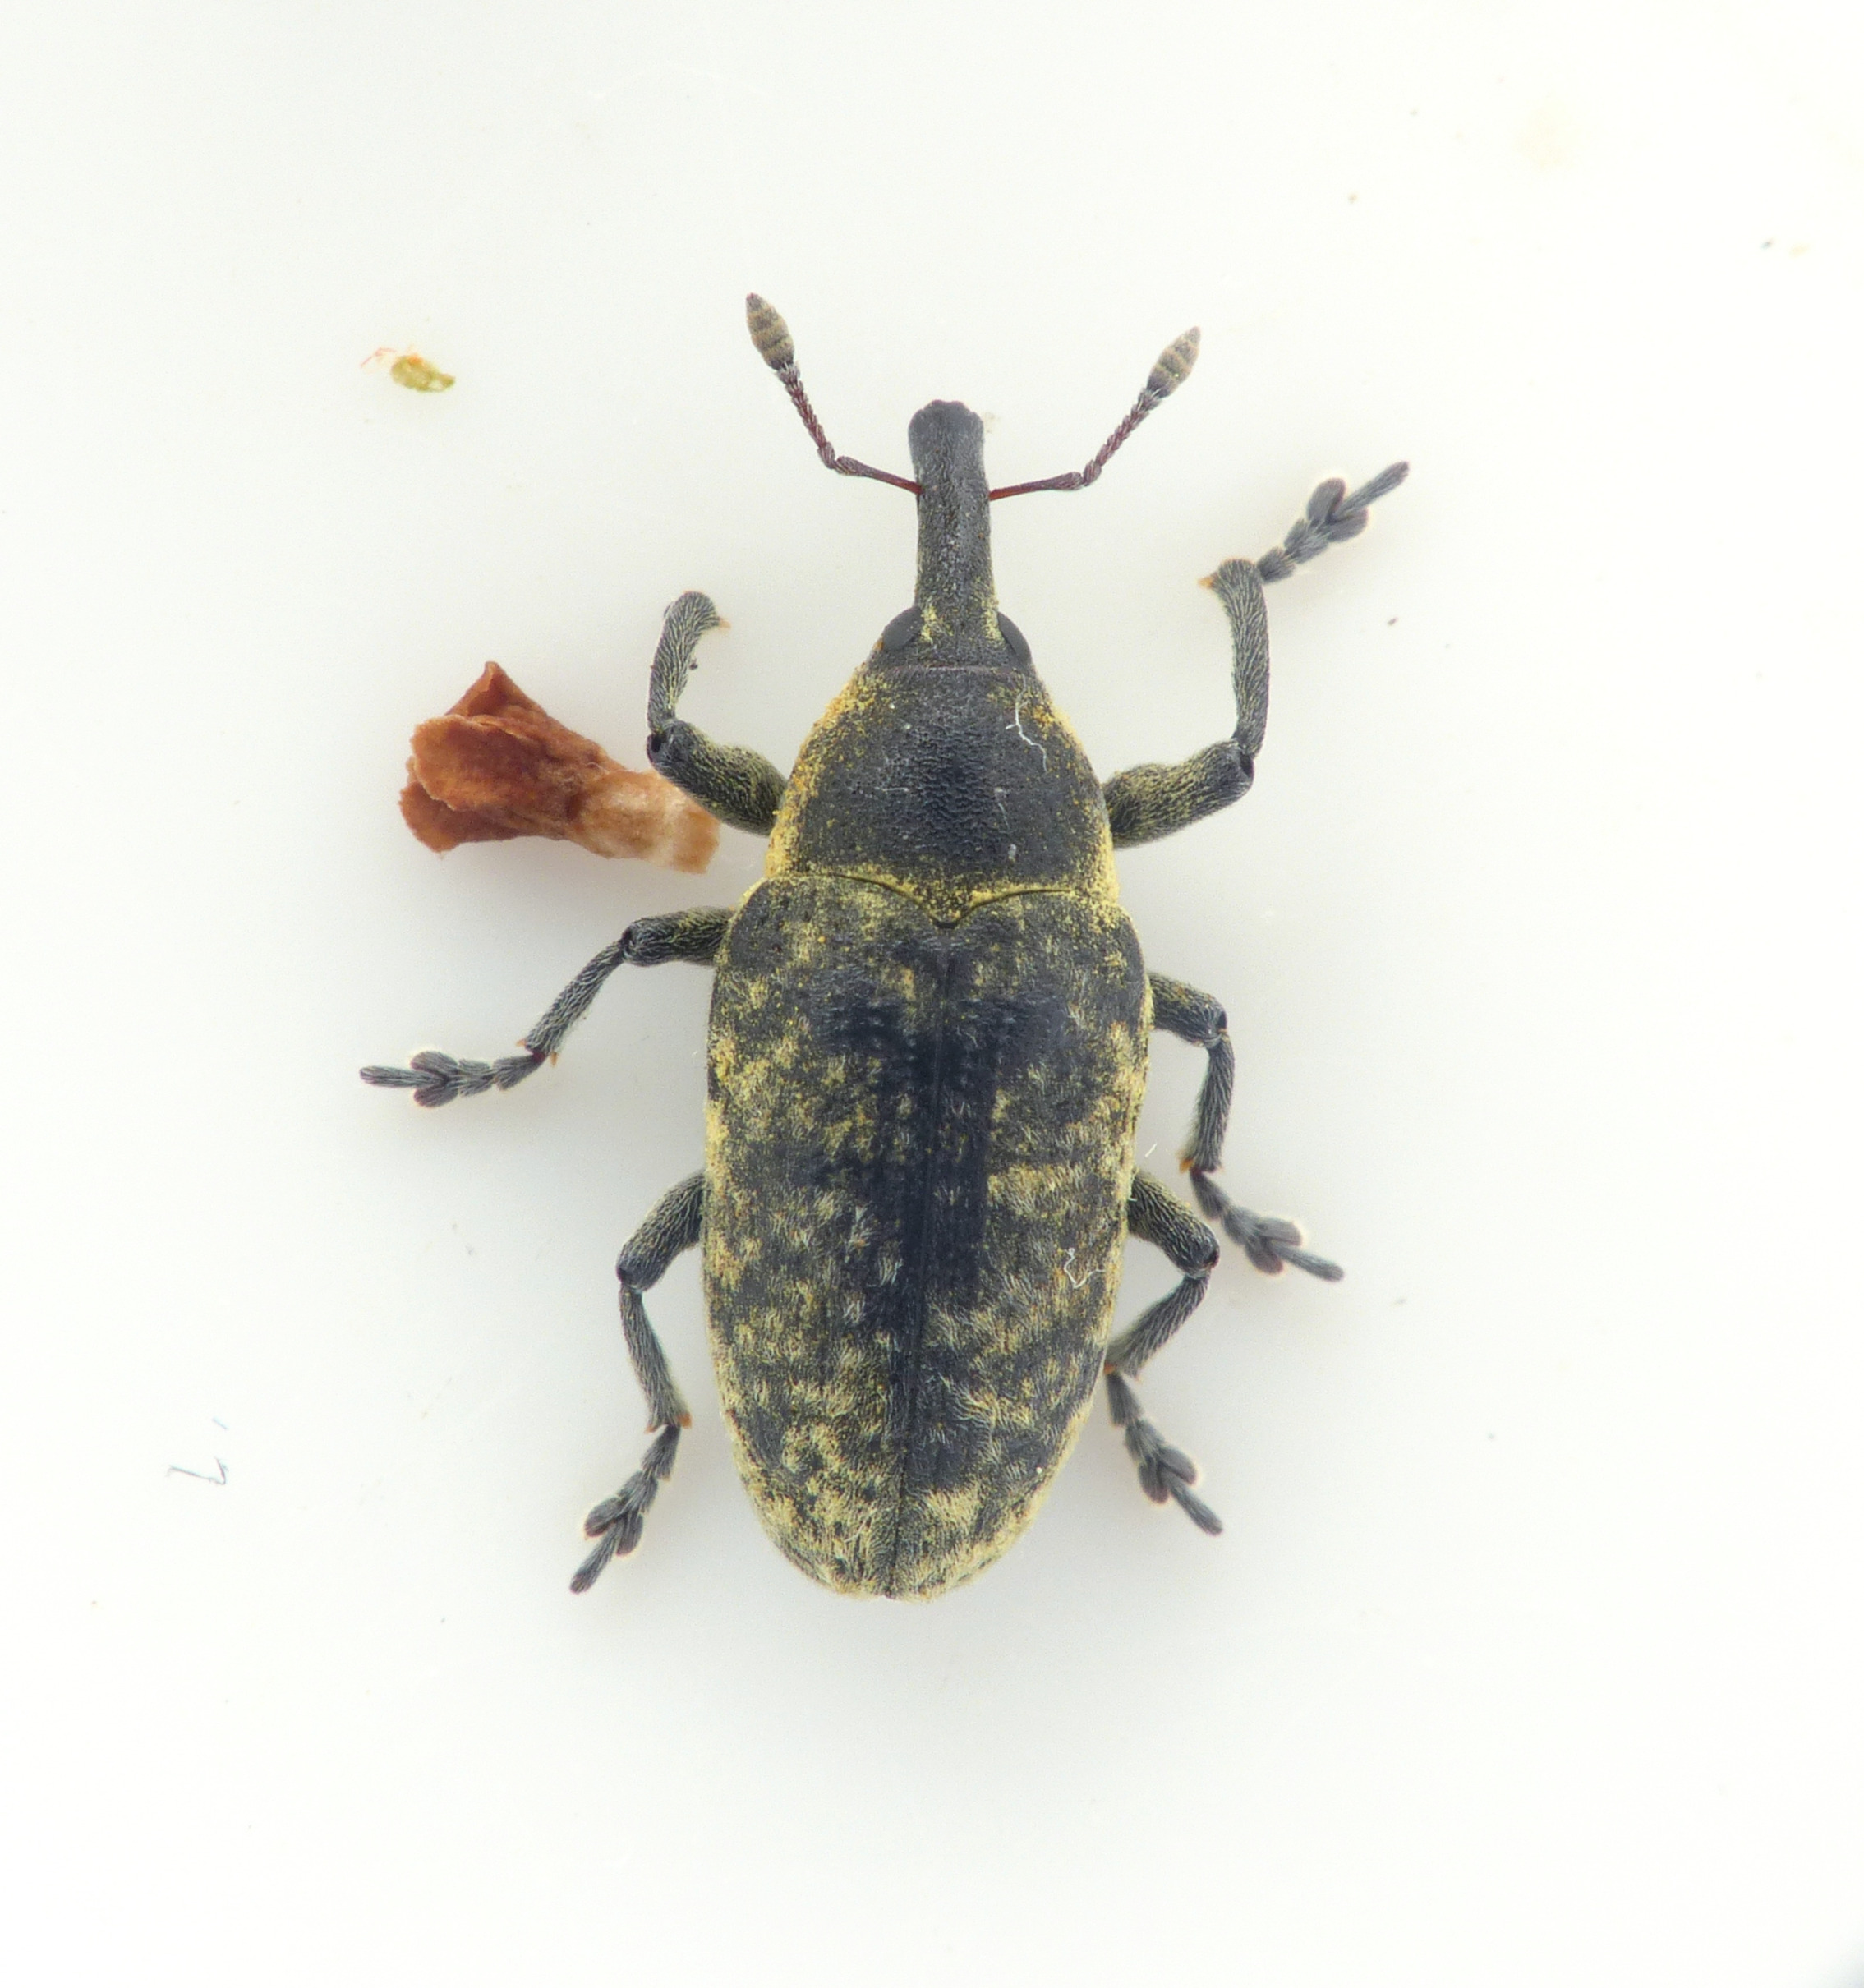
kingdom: Animalia
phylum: Arthropoda
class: Insecta
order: Coleoptera
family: Curculionidae
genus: Larinus
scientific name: Larinus carlinae
